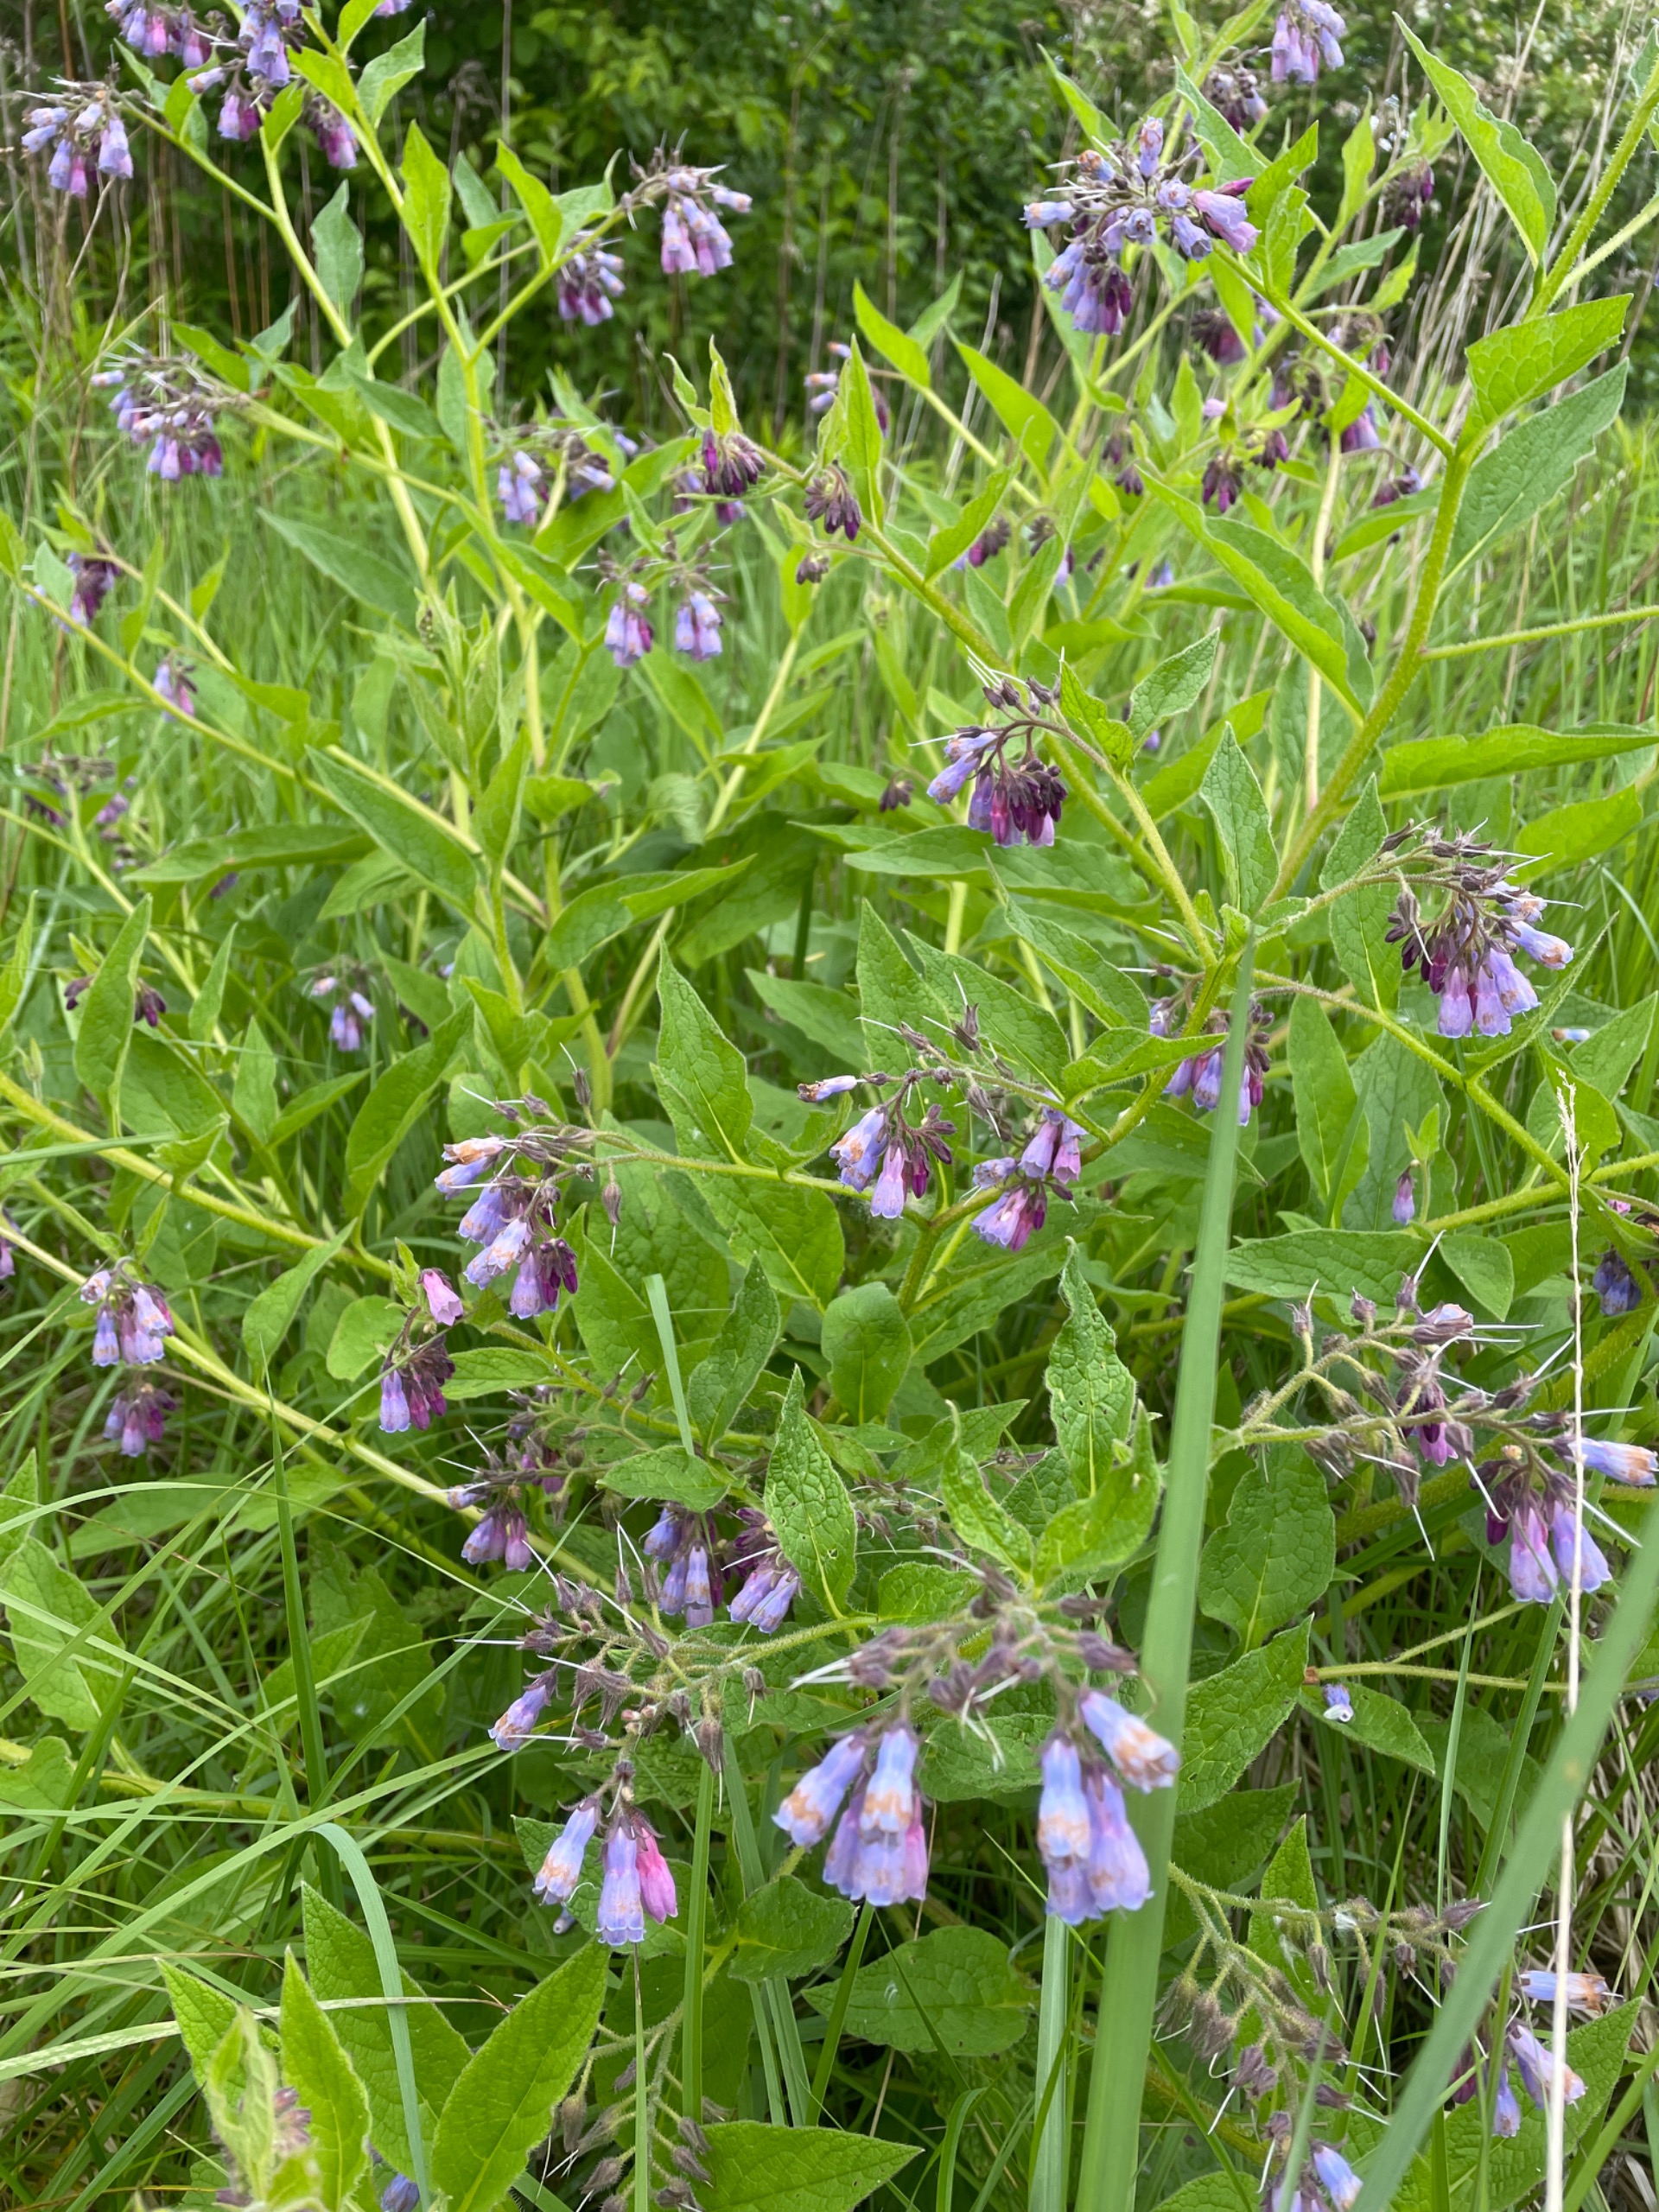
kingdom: Plantae
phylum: Tracheophyta
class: Magnoliopsida
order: Boraginales
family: Boraginaceae
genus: Symphytum
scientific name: Symphytum uplandicum
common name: Foder-kulsukker
